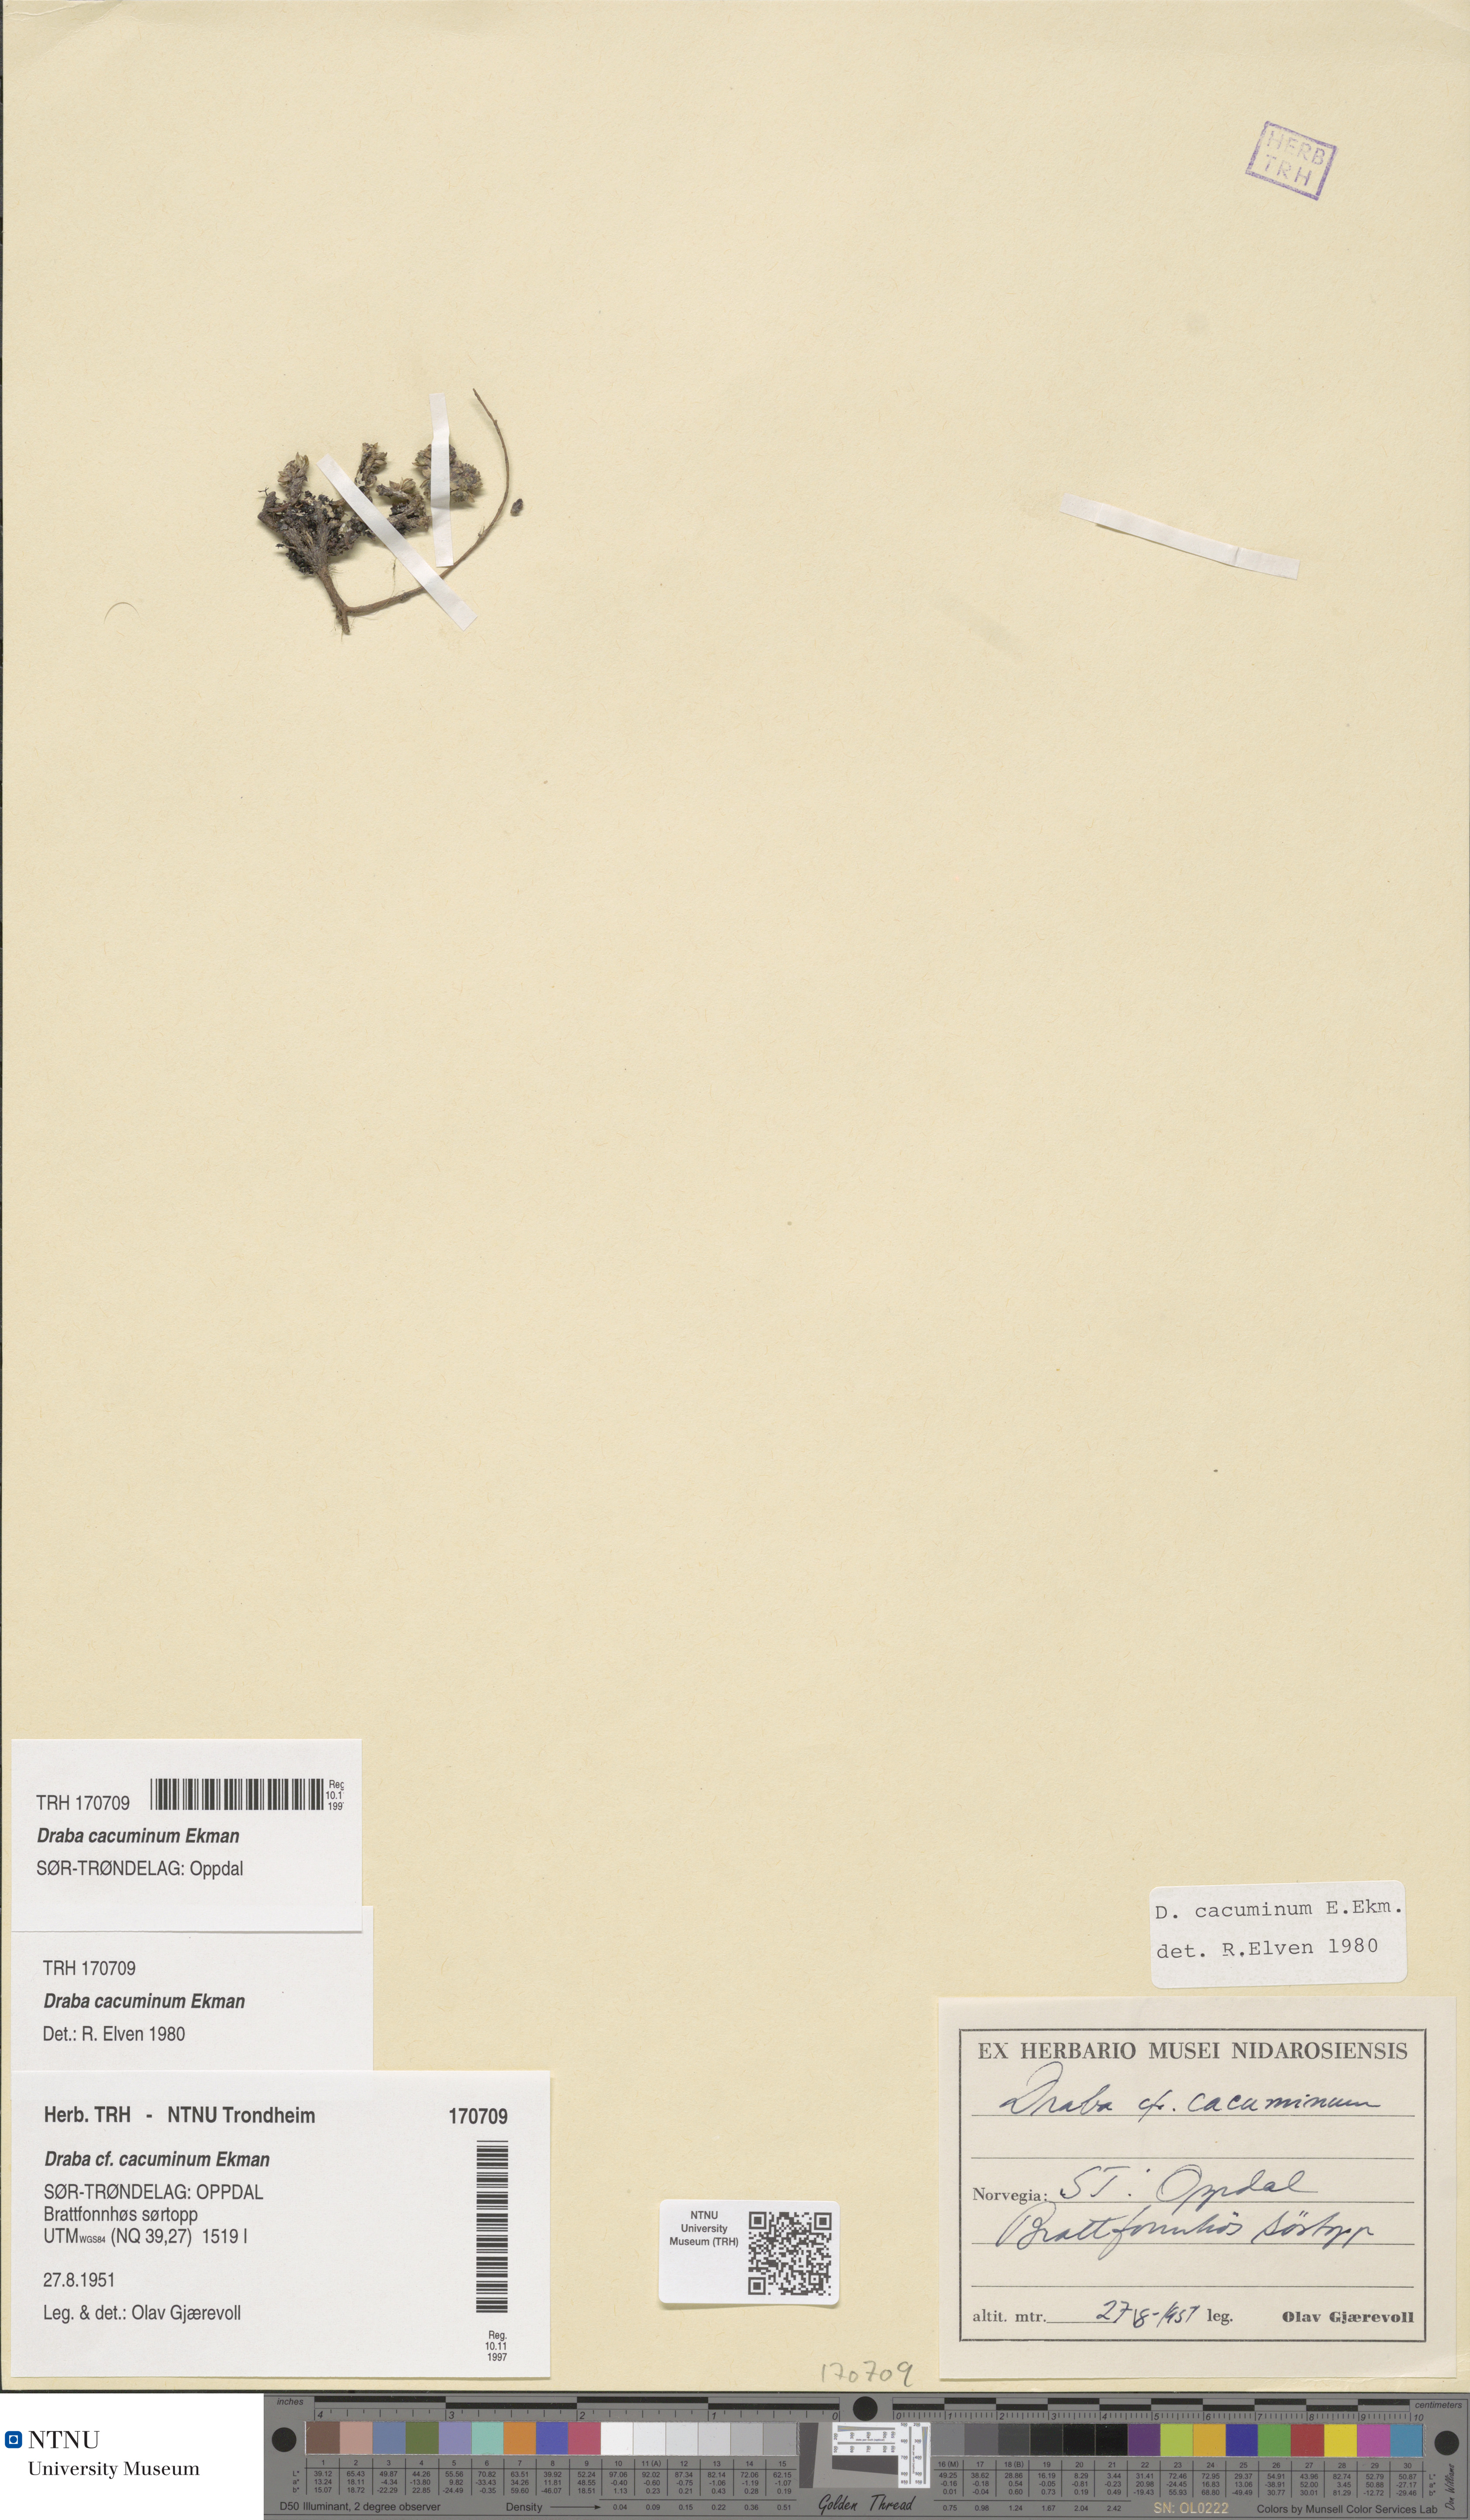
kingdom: Plantae
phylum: Tracheophyta
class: Magnoliopsida
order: Brassicales
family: Brassicaceae
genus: Draba
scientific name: Draba cacuminum
